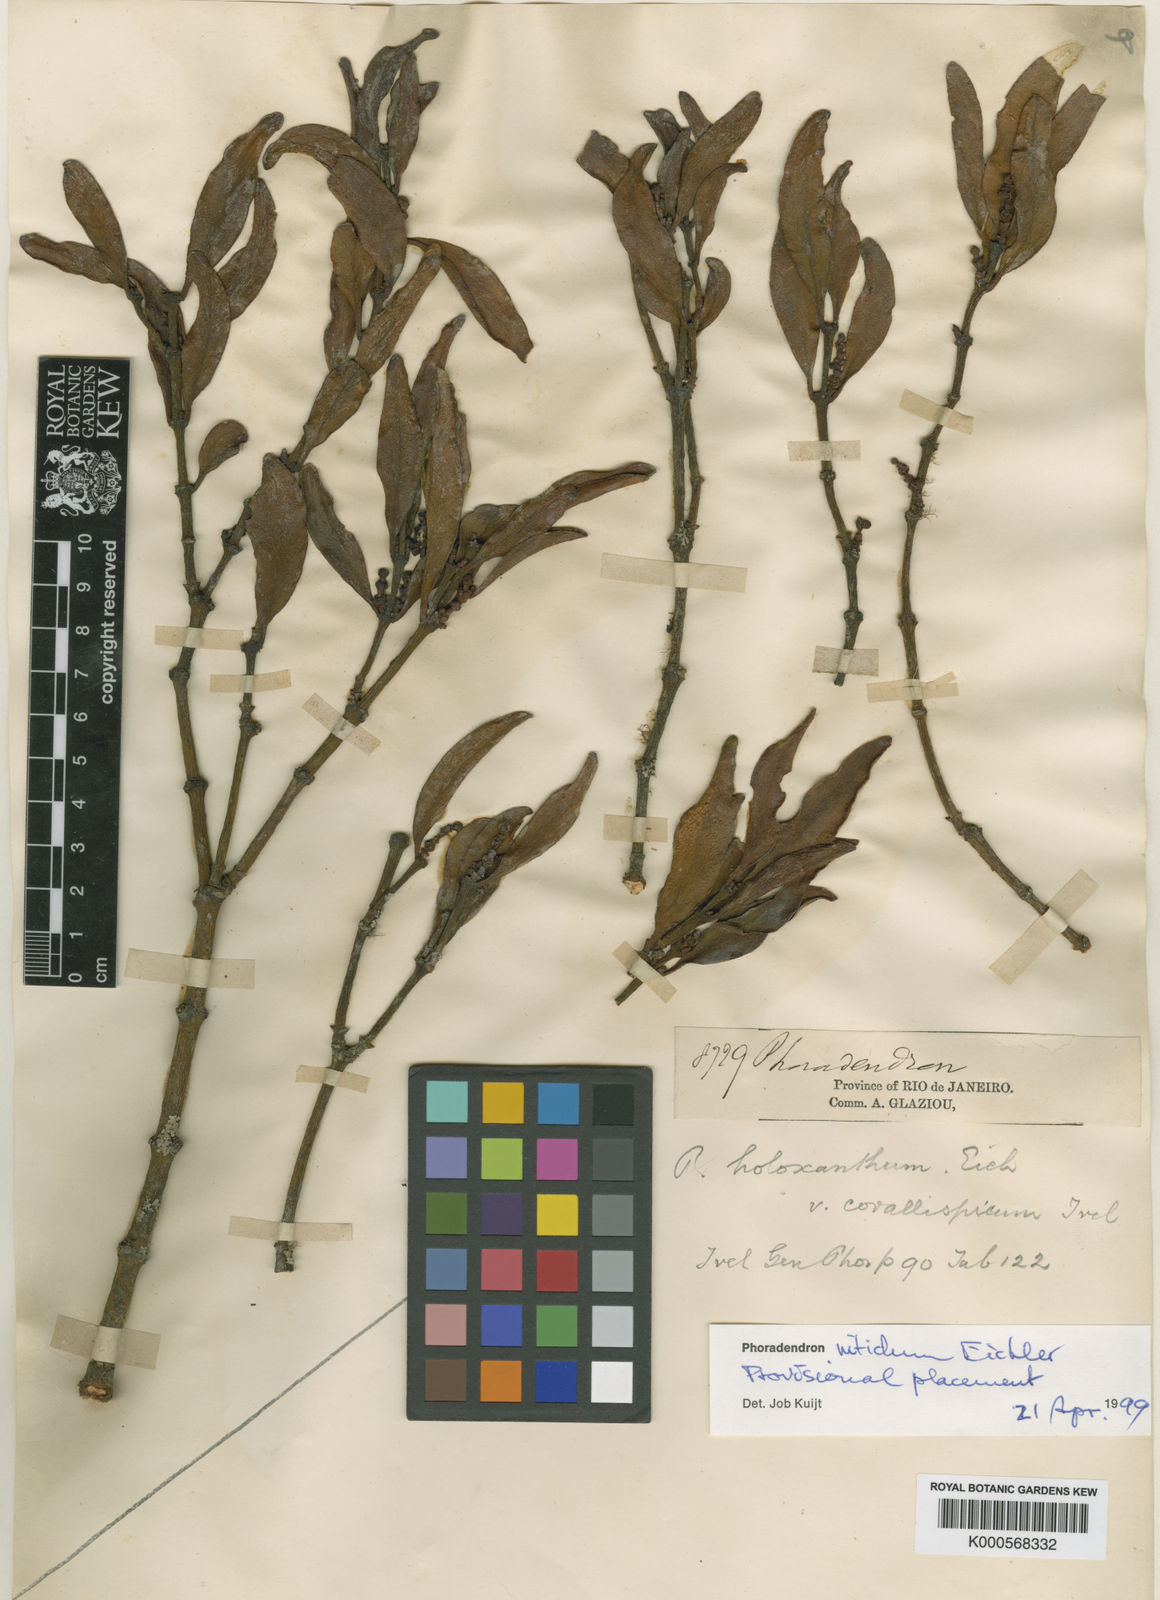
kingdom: Plantae
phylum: Tracheophyta
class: Magnoliopsida
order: Santalales
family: Viscaceae
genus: Phoradendron
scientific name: Phoradendron nitidum
